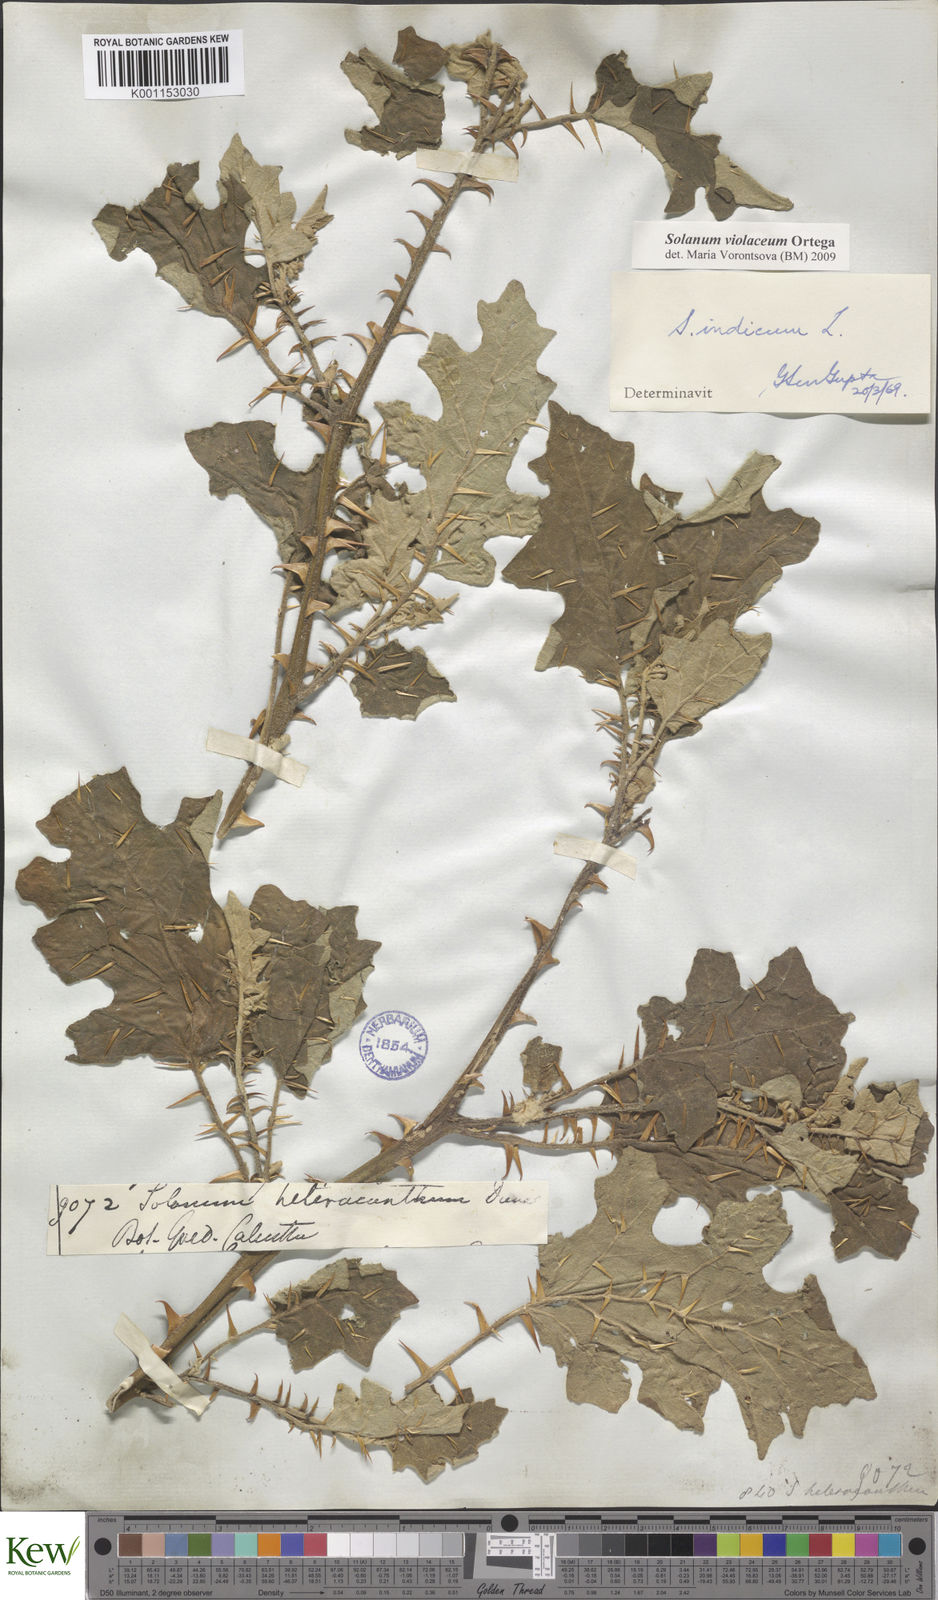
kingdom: Plantae
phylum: Tracheophyta
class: Magnoliopsida
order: Solanales
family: Solanaceae
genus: Solanum
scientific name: Solanum violaceum
